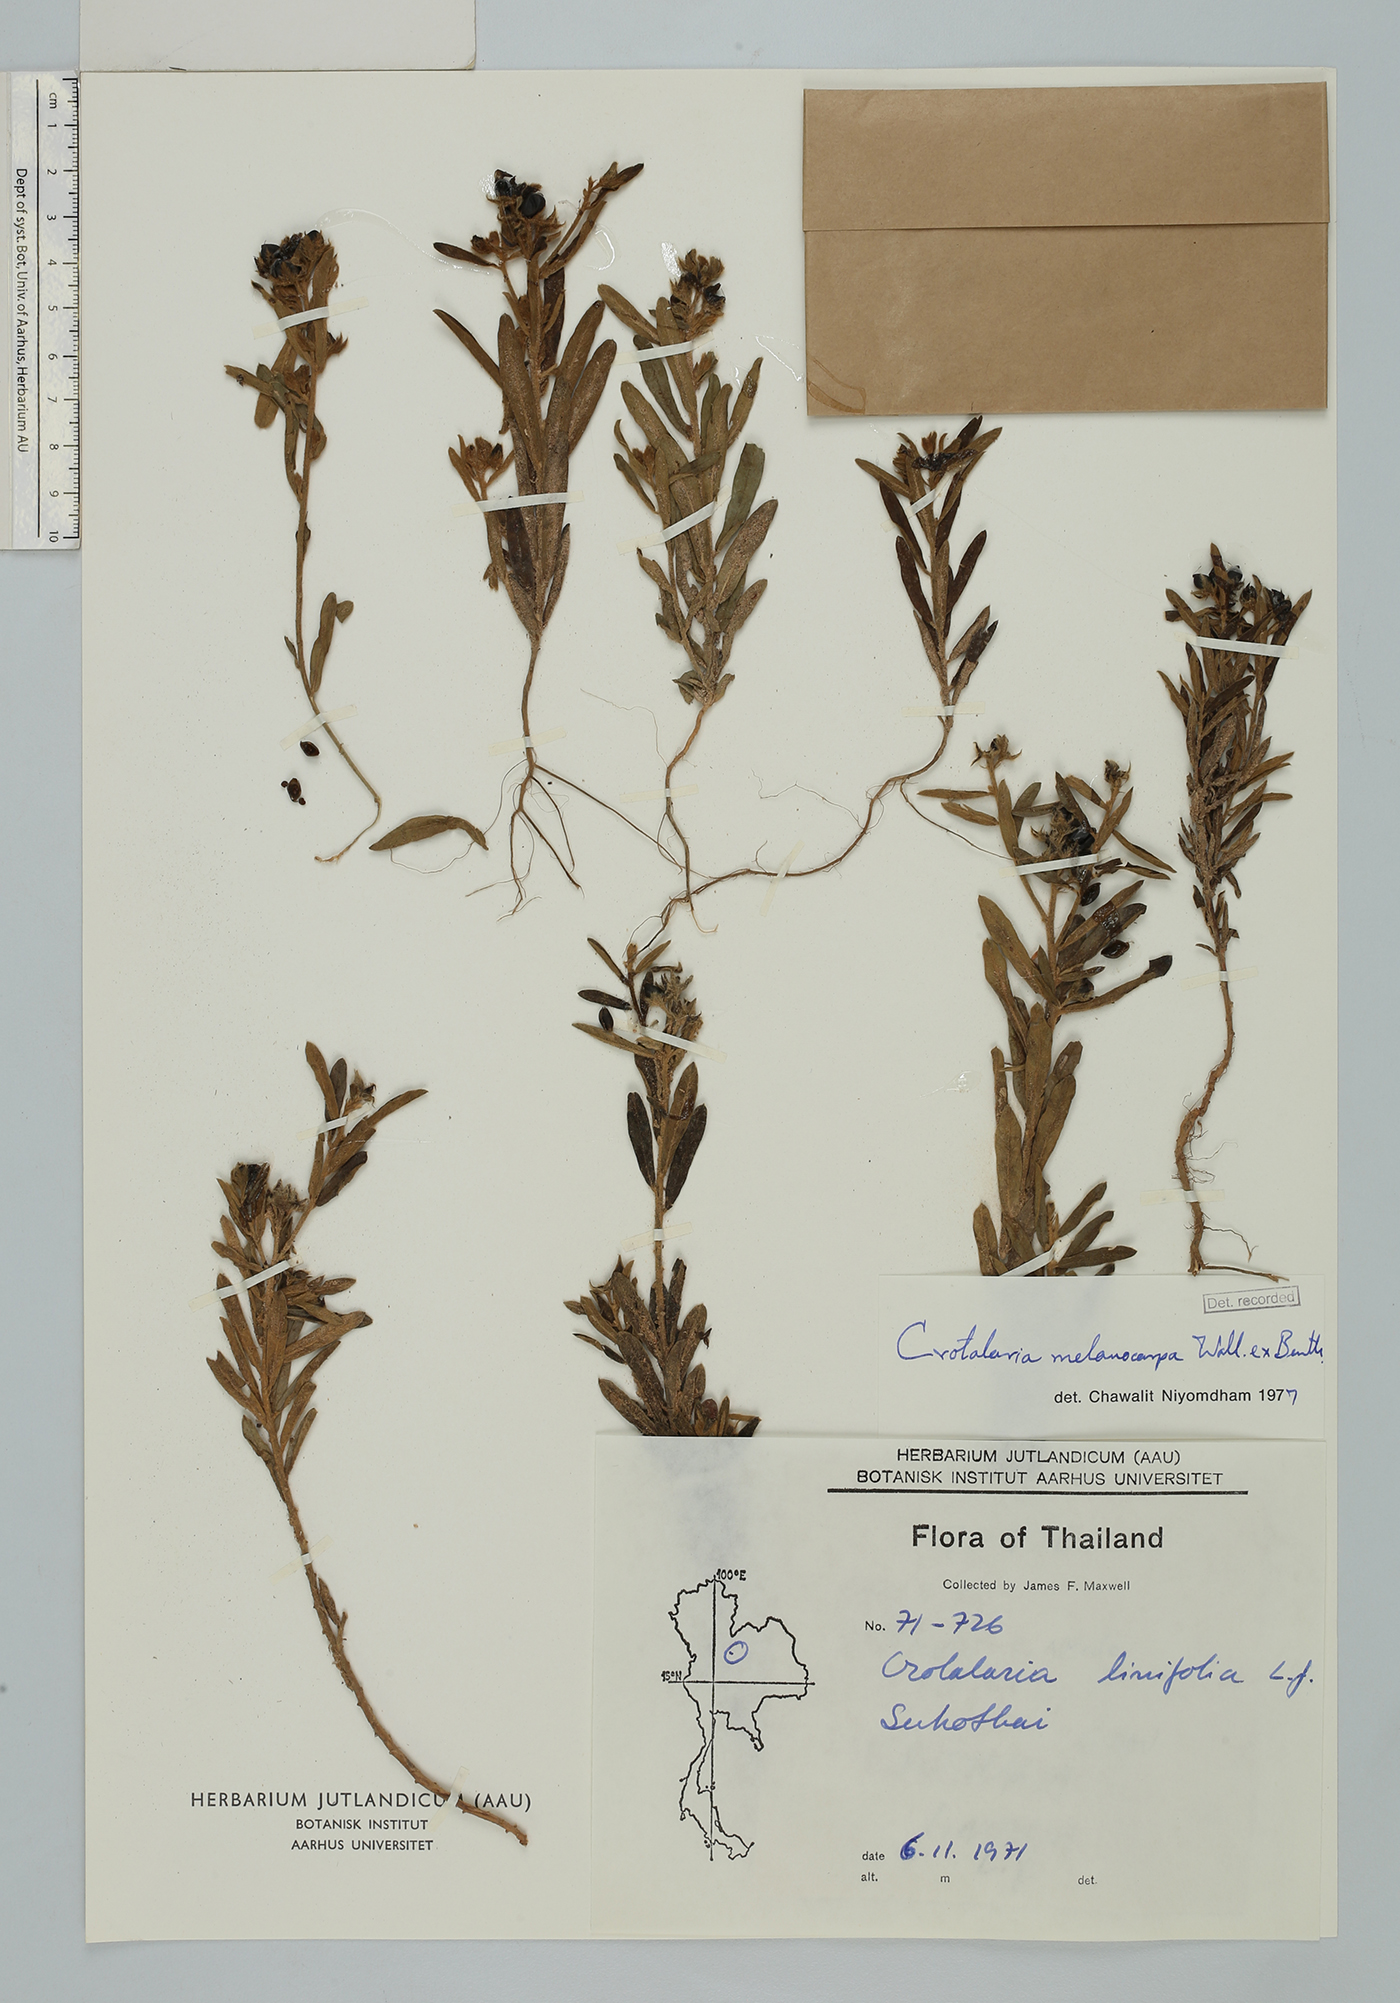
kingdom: Plantae
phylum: Tracheophyta
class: Magnoliopsida
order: Fabales
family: Fabaceae
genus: Crotalaria
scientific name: Crotalaria nana
